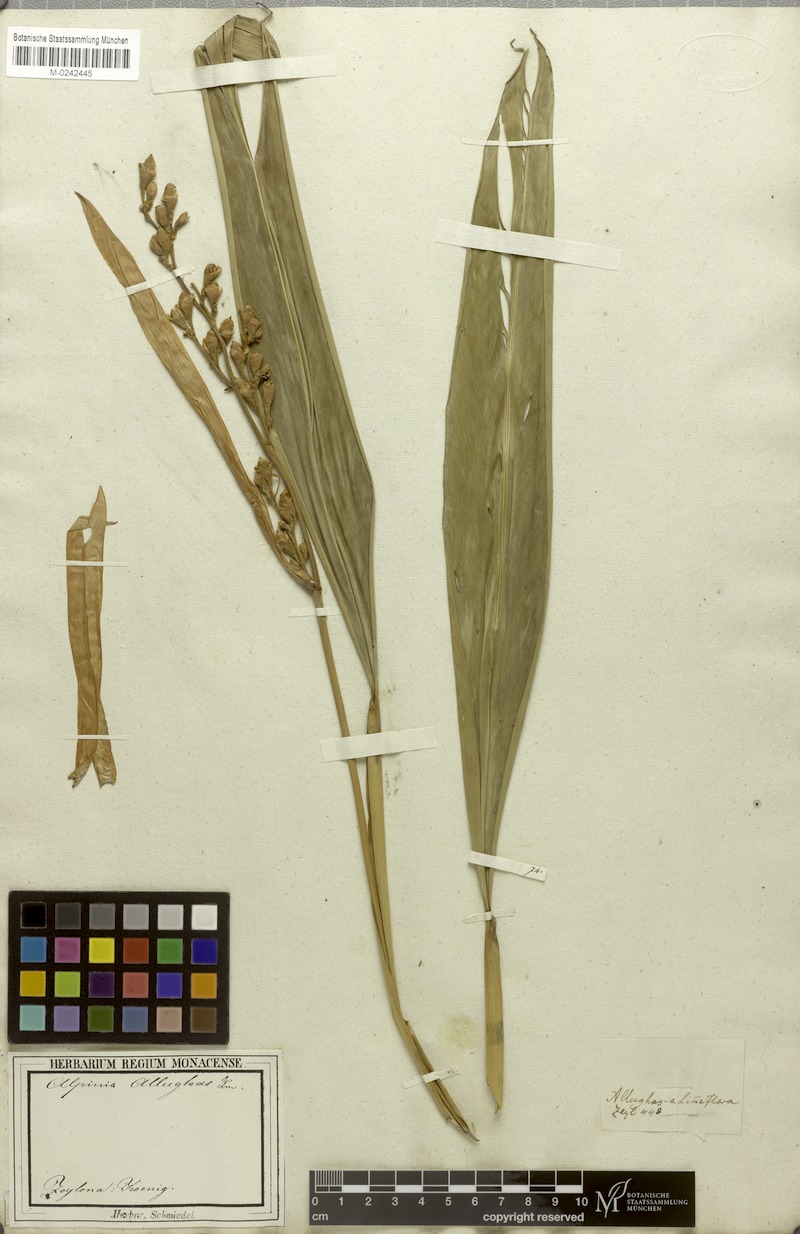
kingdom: Plantae
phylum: Tracheophyta
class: Liliopsida
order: Zingiberales
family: Zingiberaceae
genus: Alpinia
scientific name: Alpinia nigra
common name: Black fruited galanga
